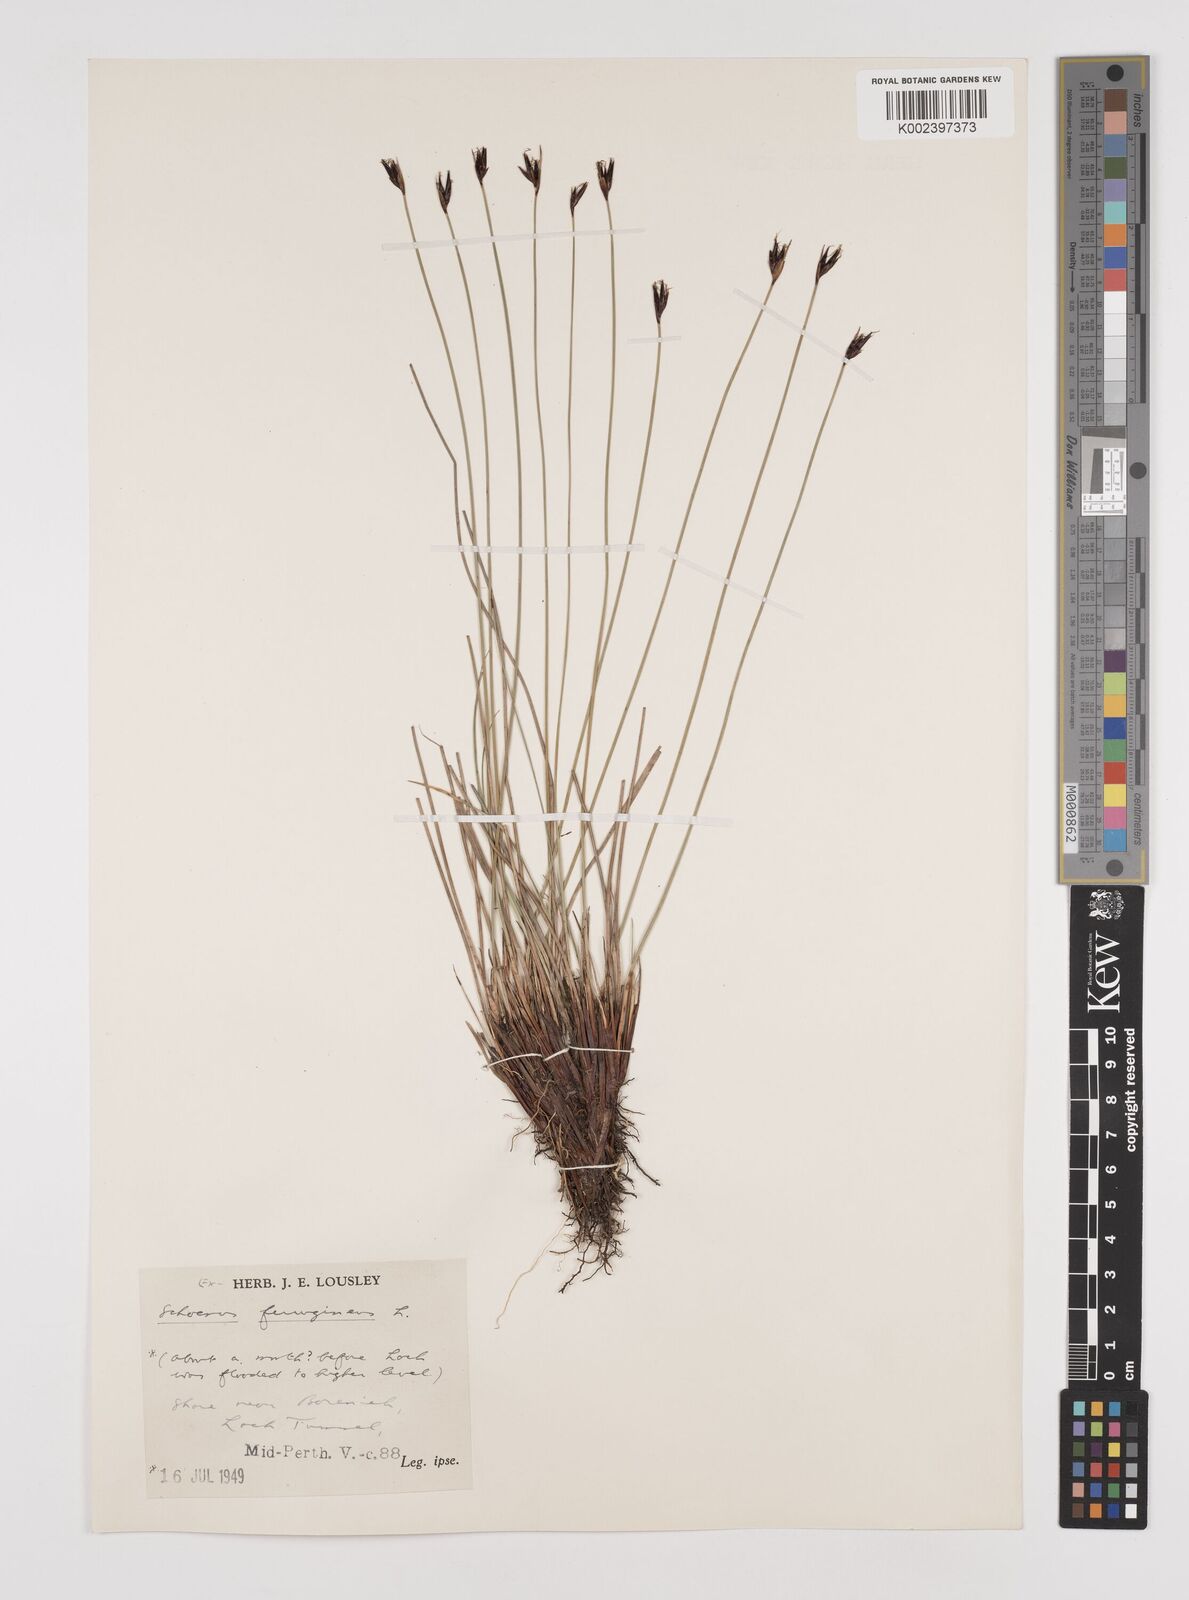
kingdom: Plantae
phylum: Tracheophyta
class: Liliopsida
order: Poales
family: Cyperaceae
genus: Schoenus
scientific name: Schoenus ferrugineus
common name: Brown bog-rush
